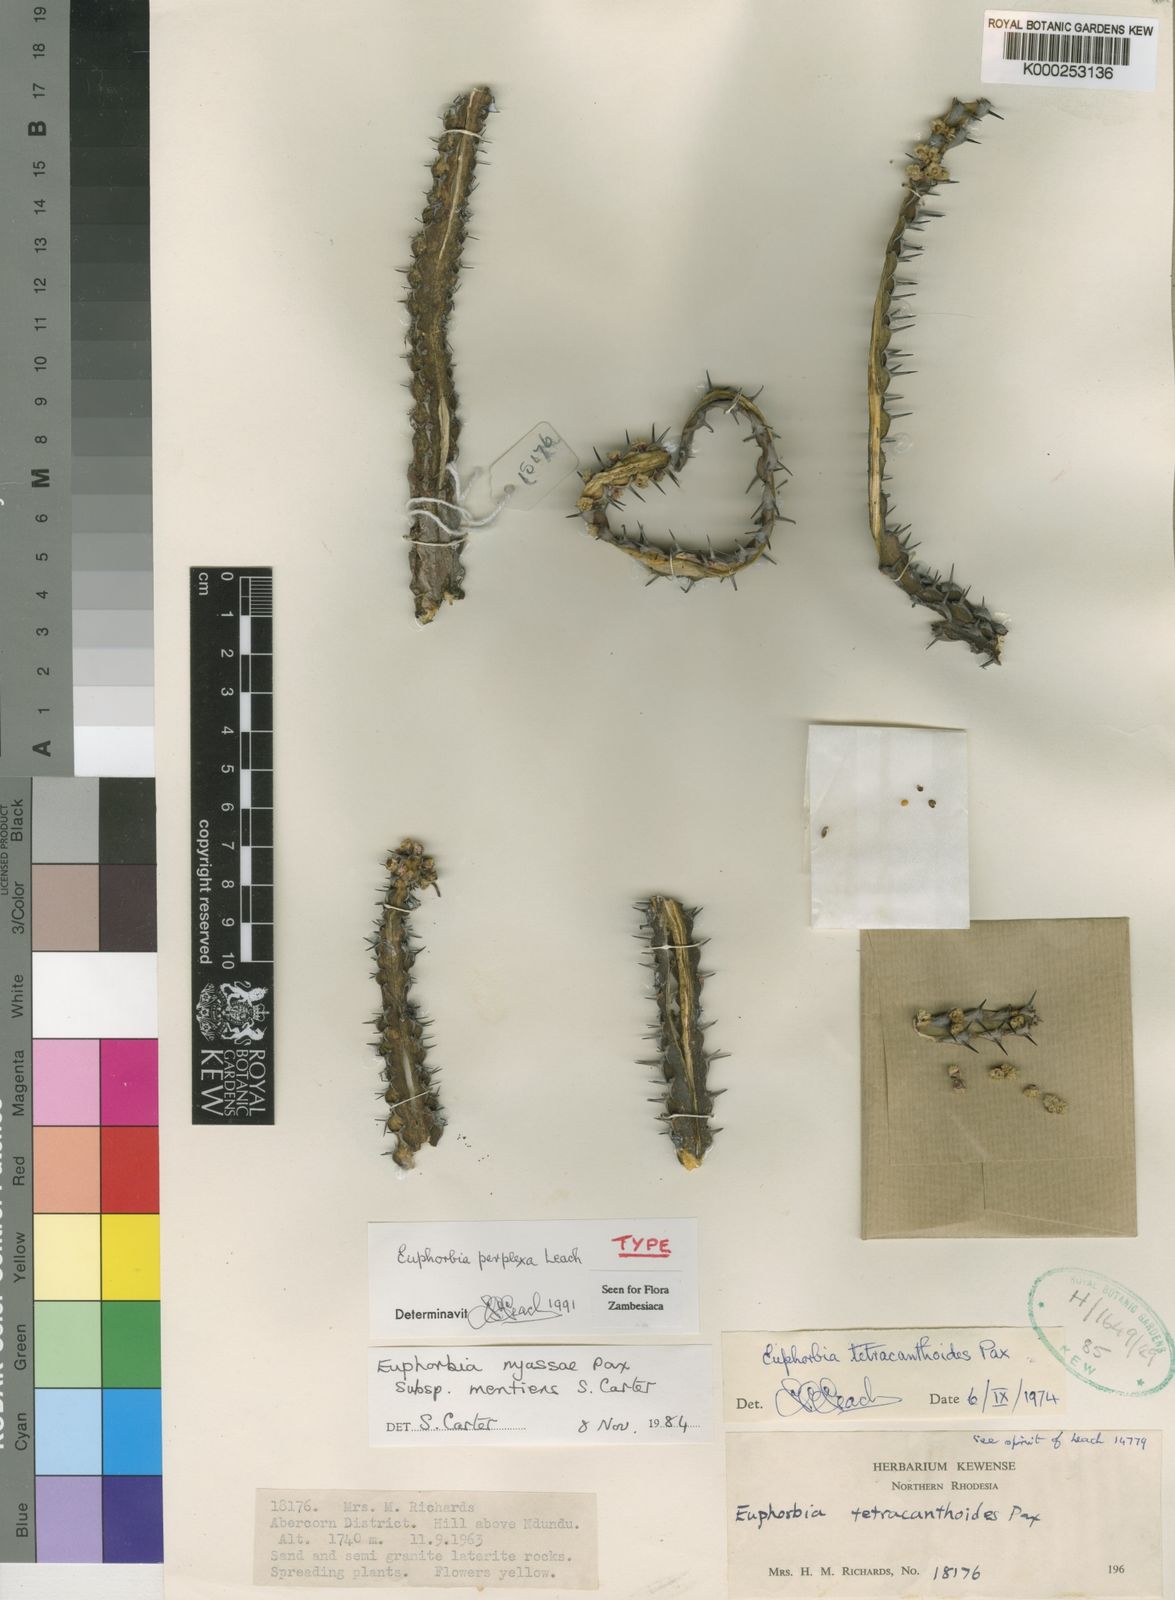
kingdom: Plantae
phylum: Tracheophyta
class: Magnoliopsida
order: Malpighiales
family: Euphorbiaceae
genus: Euphorbia
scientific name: Euphorbia perplexa
